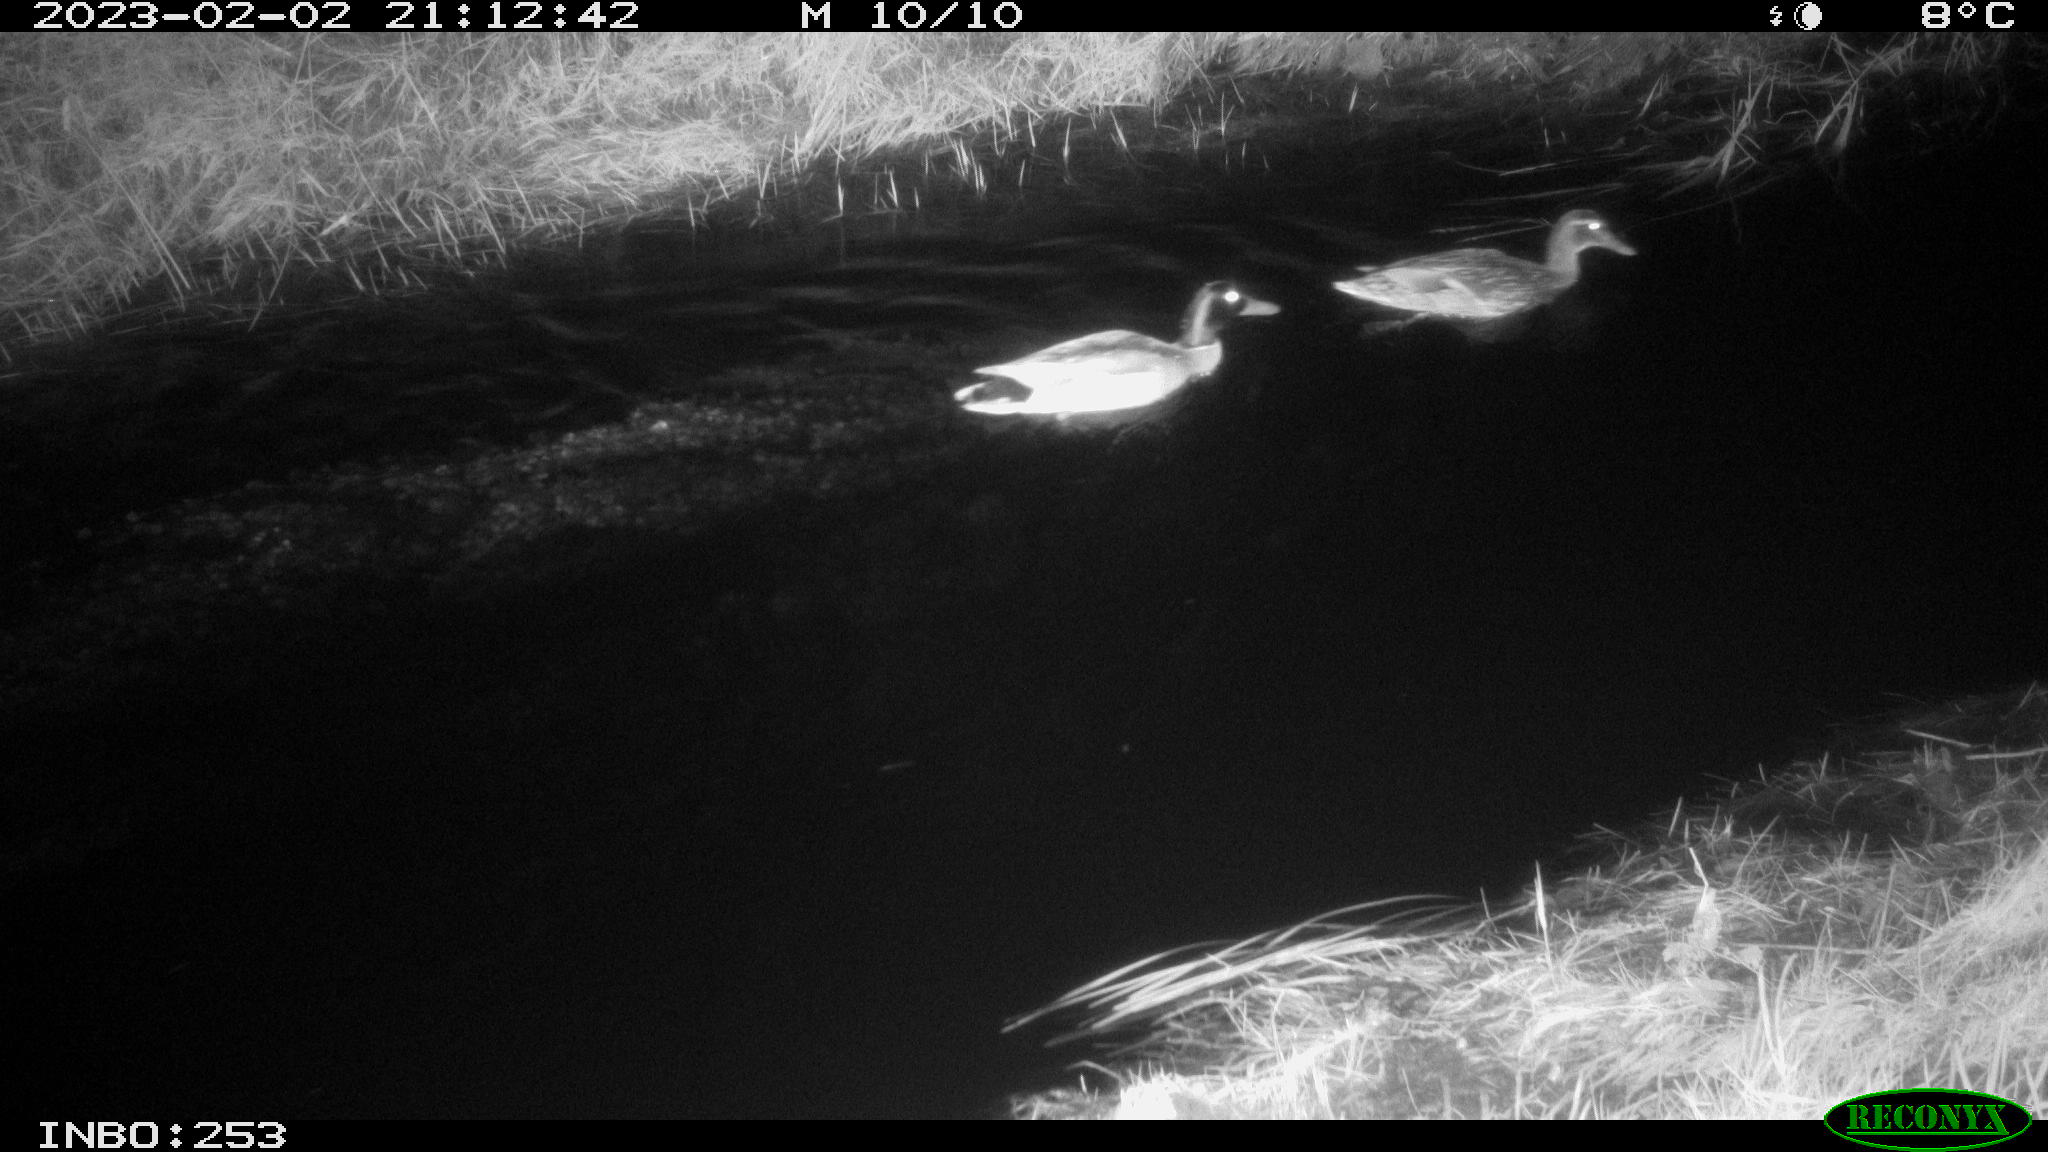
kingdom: Animalia
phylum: Chordata
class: Aves
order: Anseriformes
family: Anatidae
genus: Anas
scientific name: Anas
